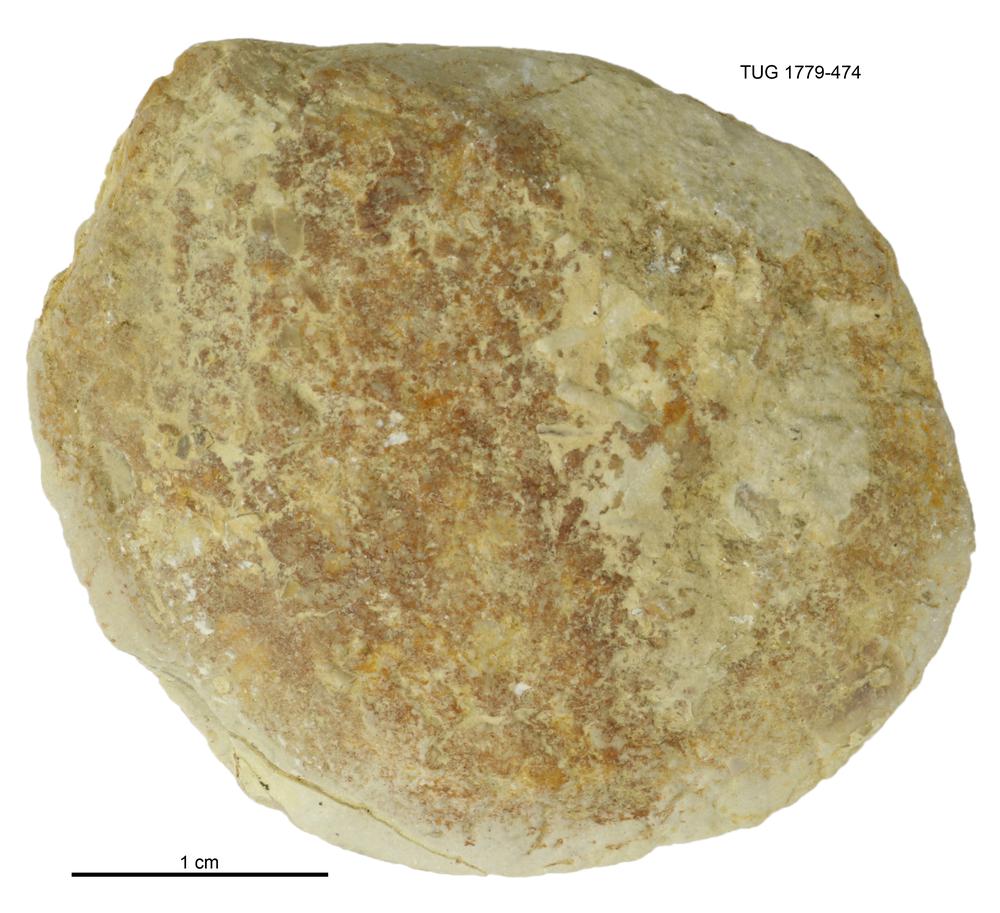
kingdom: Animalia
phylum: Mollusca
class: Bivalvia
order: Modiomorphida
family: Modiomorphidae
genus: Modiolopsis
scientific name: Modiolopsis
